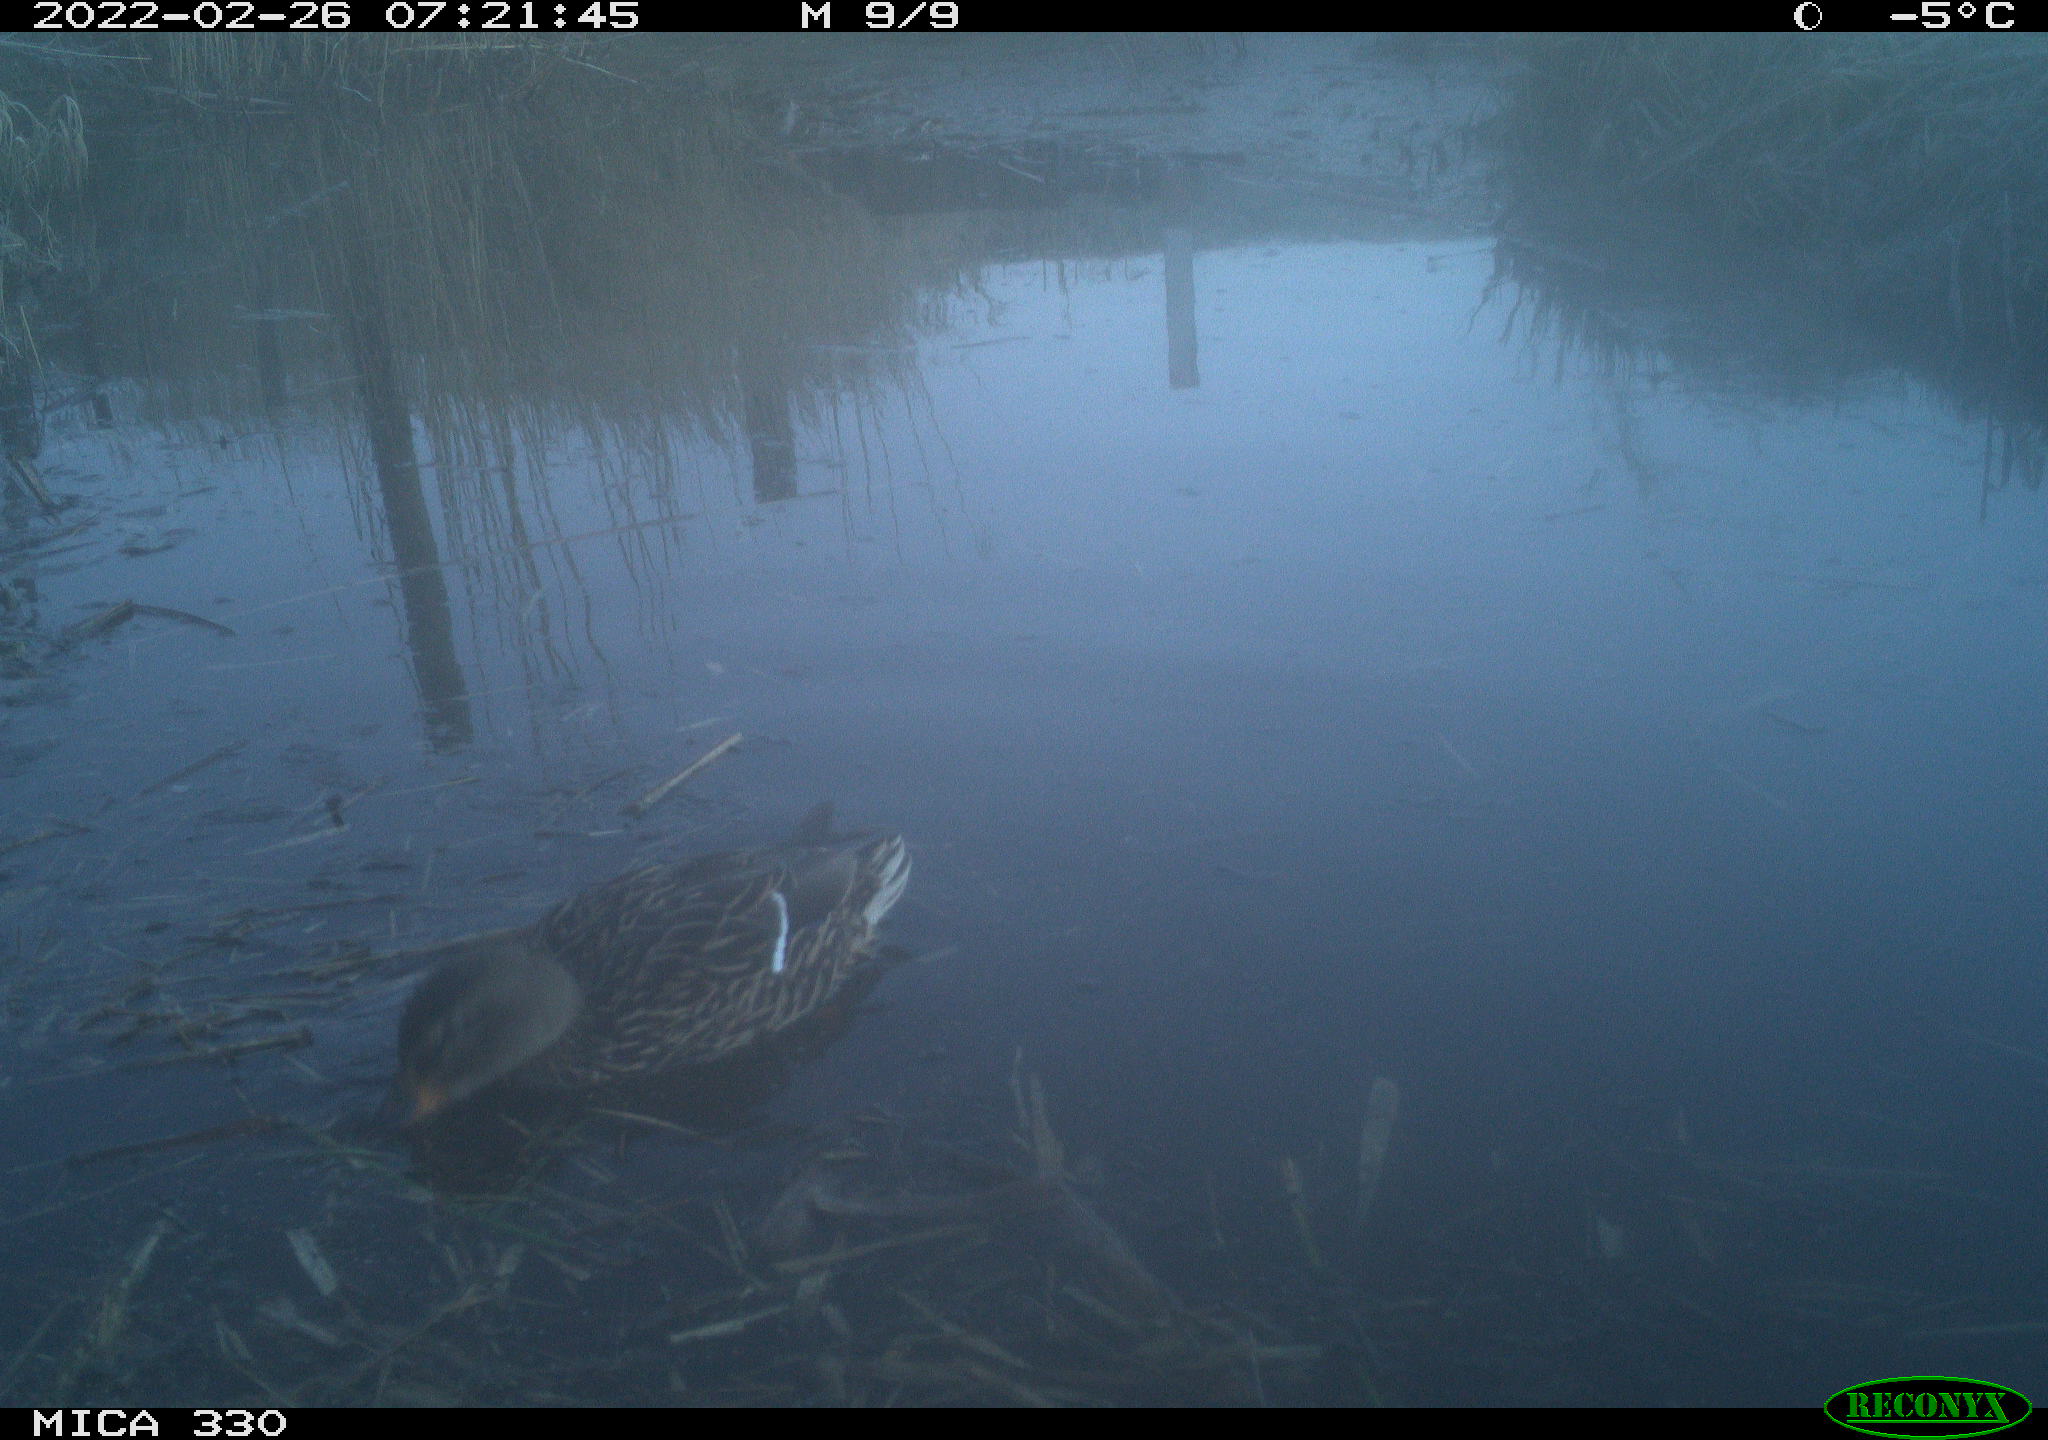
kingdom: Animalia
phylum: Chordata
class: Aves
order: Anseriformes
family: Anatidae
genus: Anas
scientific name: Anas platyrhynchos
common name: Mallard
